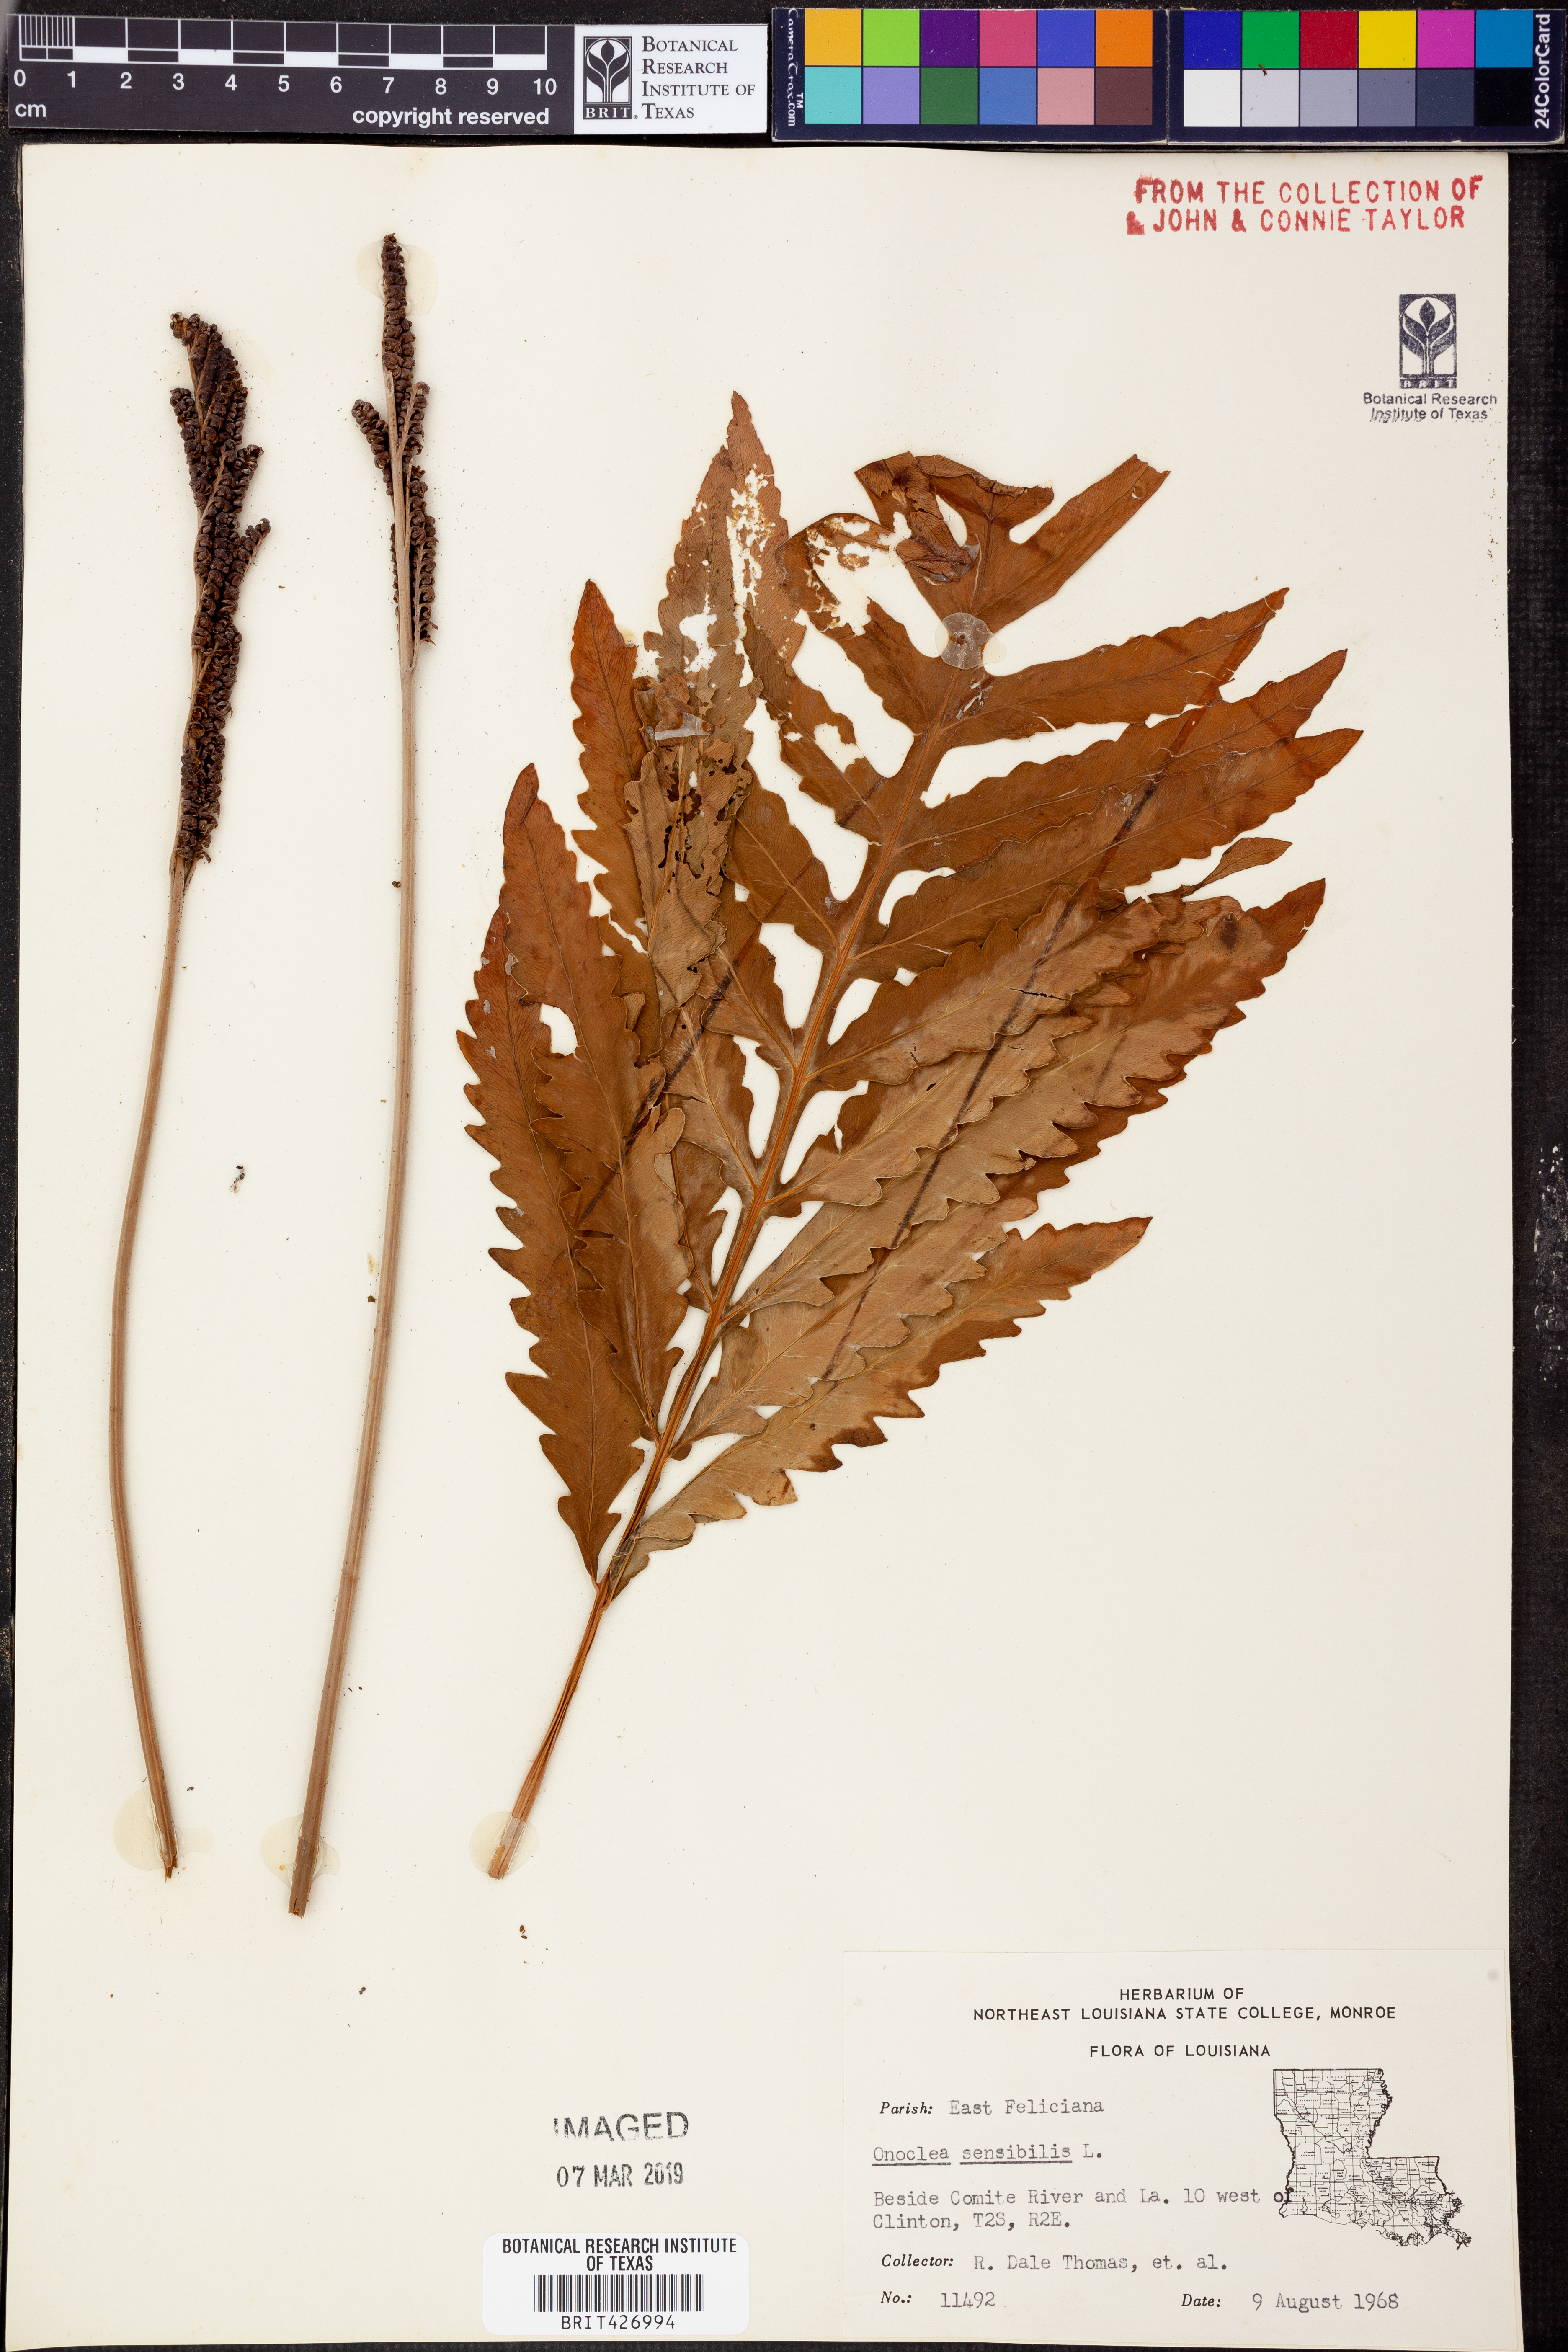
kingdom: Plantae
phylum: Tracheophyta
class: Polypodiopsida
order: Polypodiales
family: Onocleaceae
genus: Onoclea
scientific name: Onoclea sensibilis
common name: Sensitive fern
